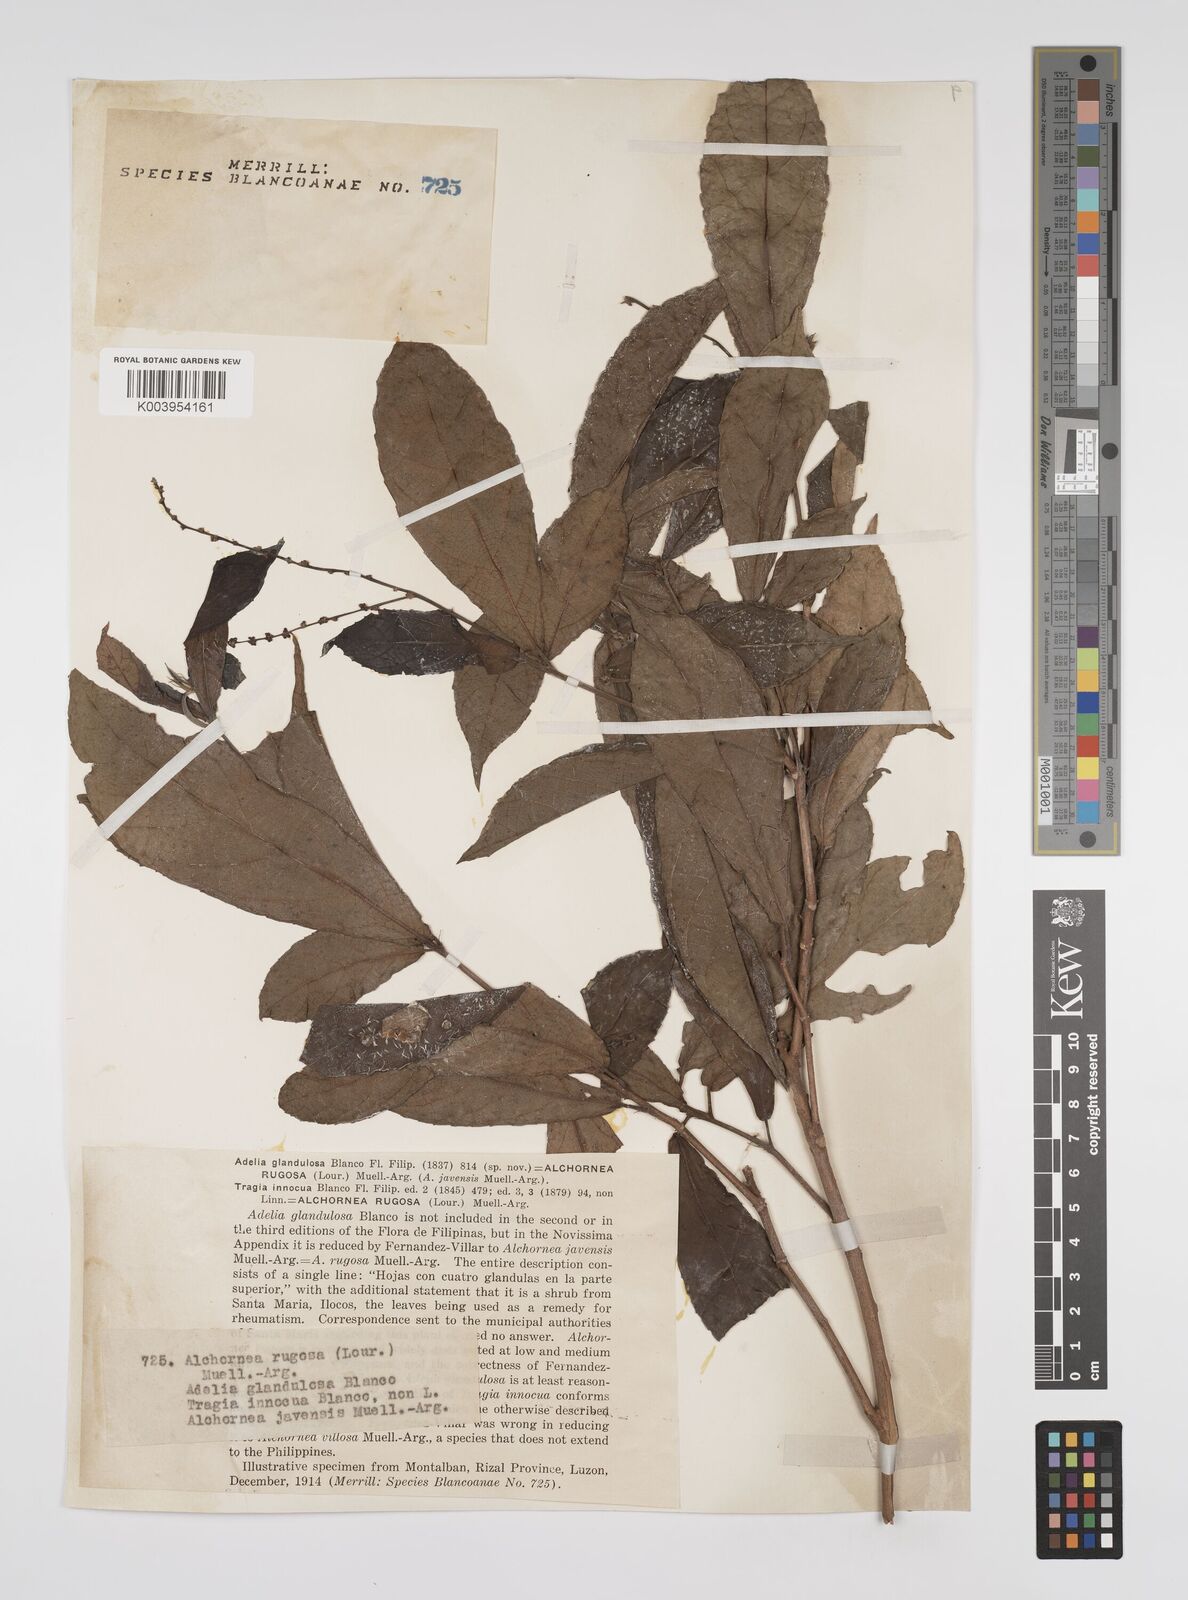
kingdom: Plantae
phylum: Tracheophyta
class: Magnoliopsida
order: Malpighiales
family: Euphorbiaceae
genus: Alchornea
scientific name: Alchornea rugosa
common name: Alchorntree
